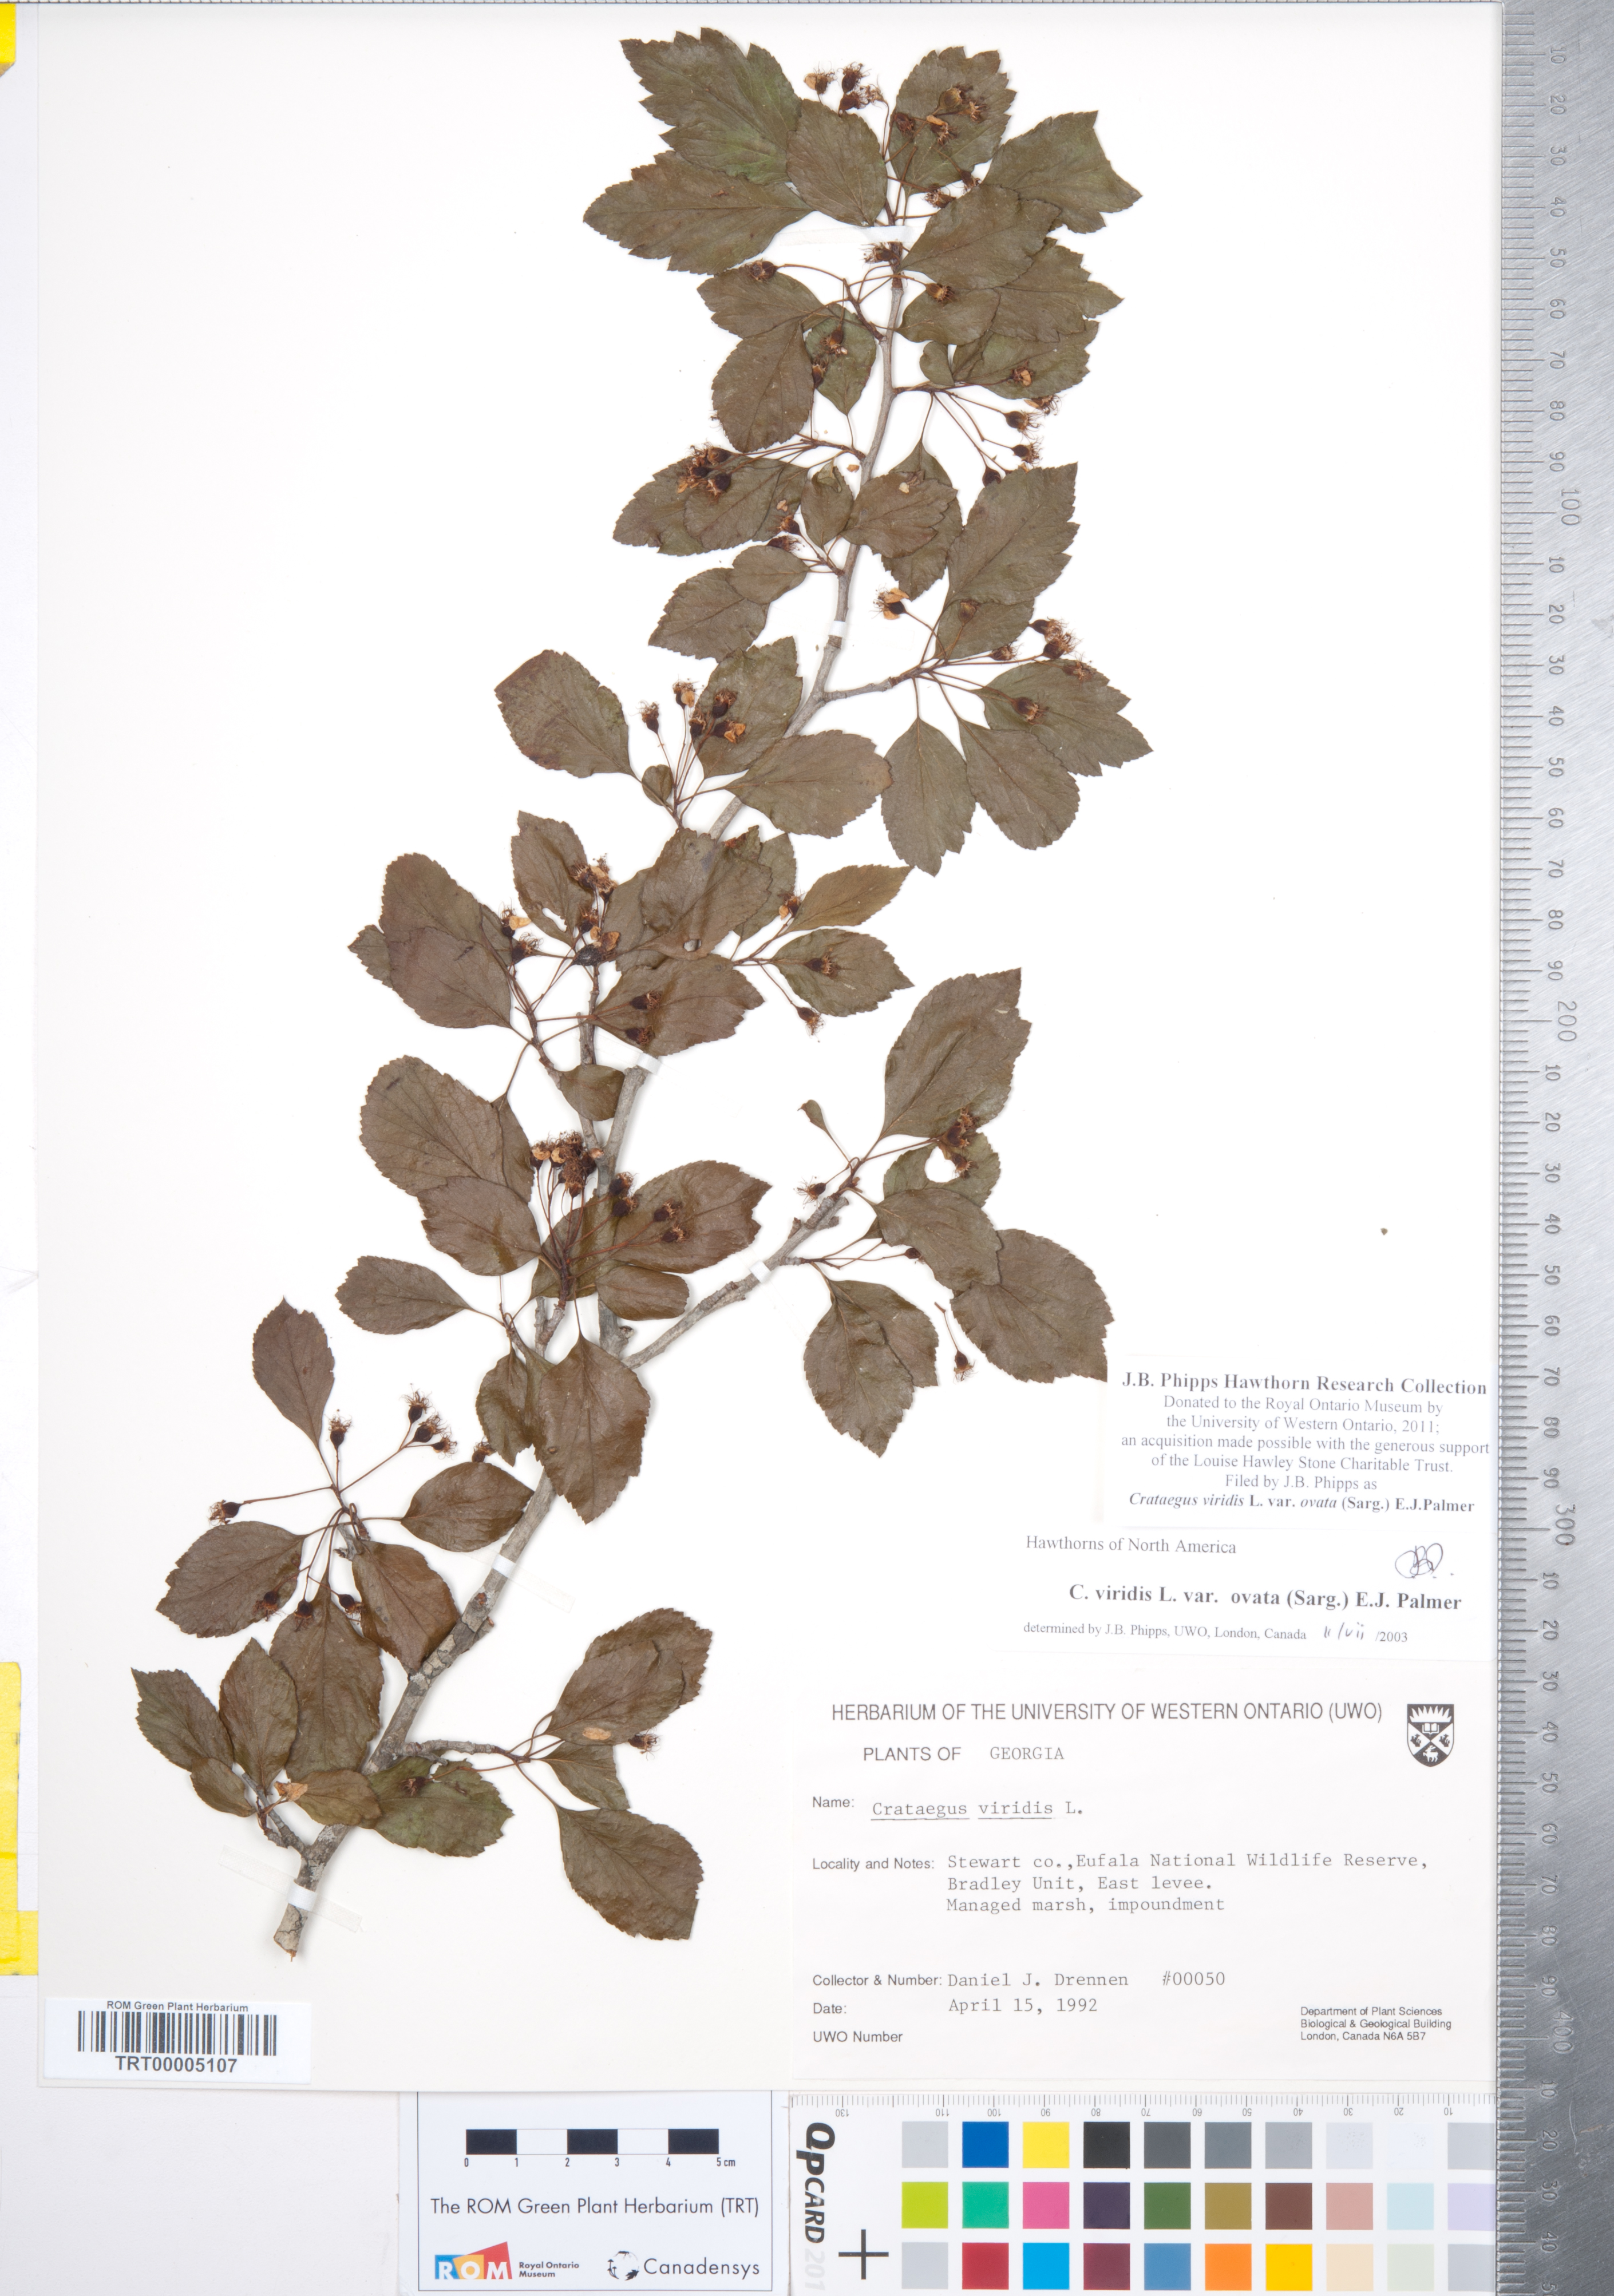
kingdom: Plantae
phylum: Tracheophyta
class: Magnoliopsida
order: Rosales
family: Rosaceae
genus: Crataegus
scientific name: Crataegus viridis
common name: Southernthorn
